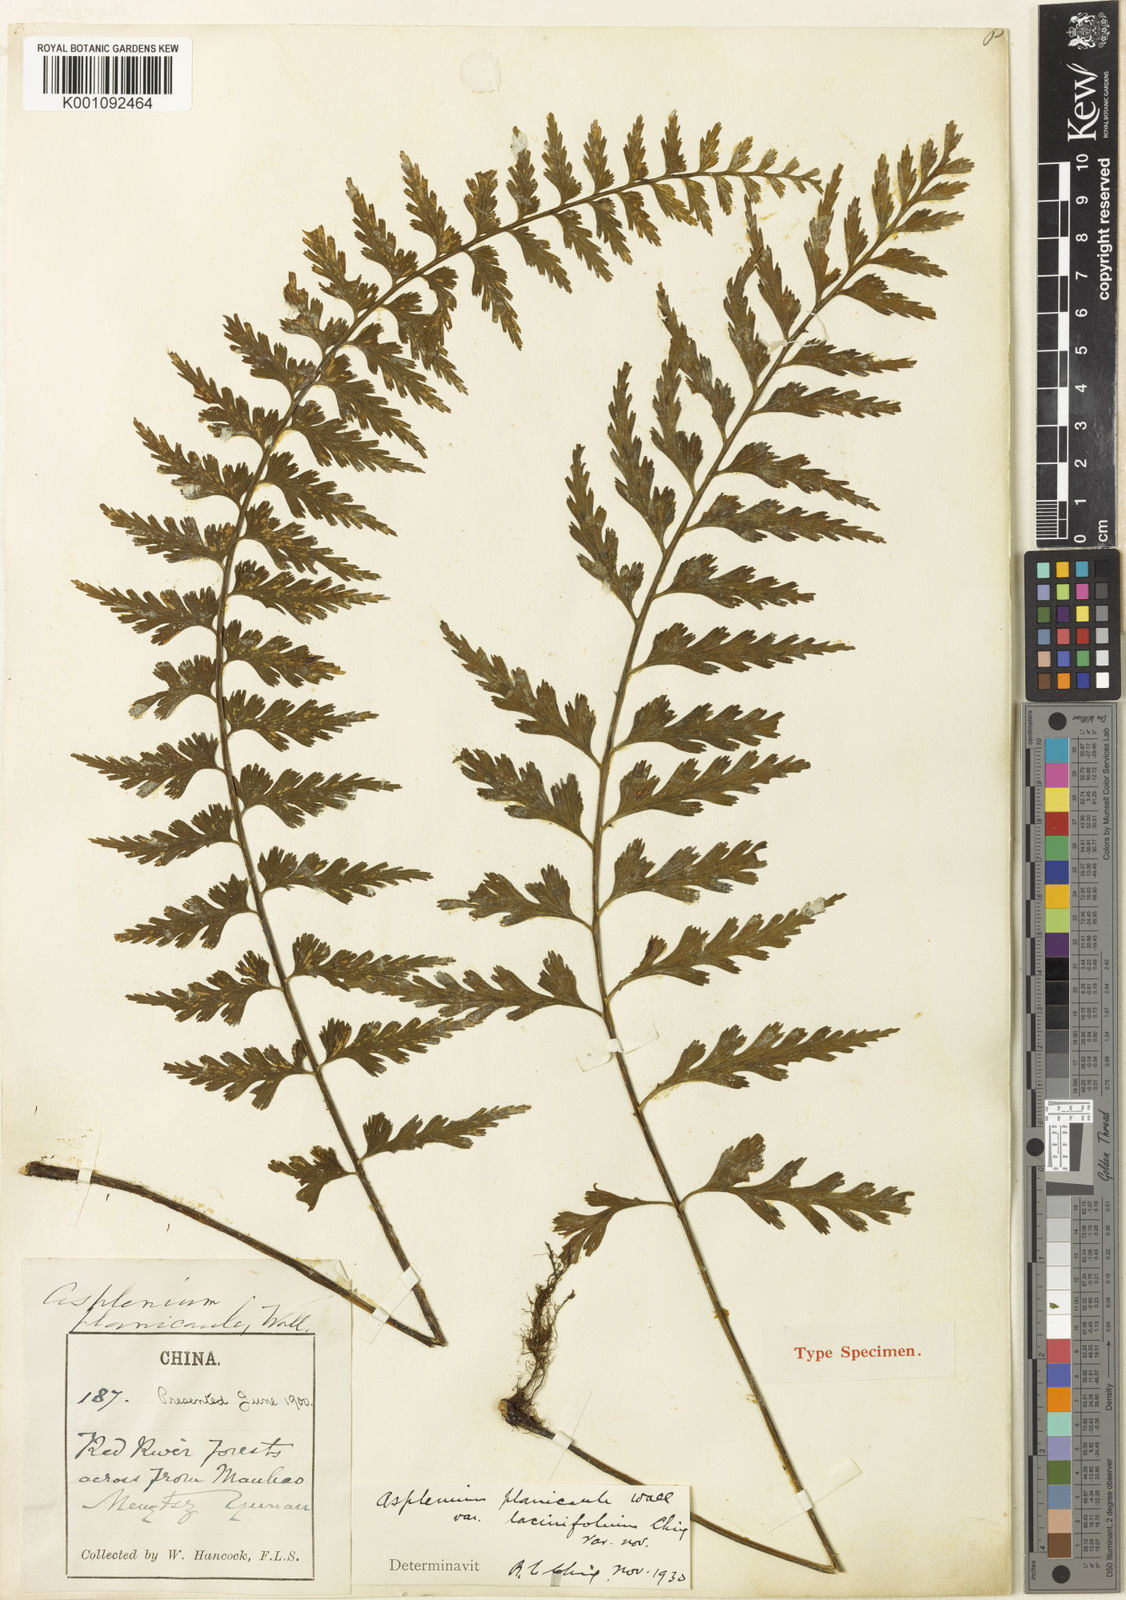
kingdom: Plantae
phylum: Tracheophyta
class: Polypodiopsida
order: Polypodiales
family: Aspleniaceae
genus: Asplenium
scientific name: Asplenium yoshinagae
